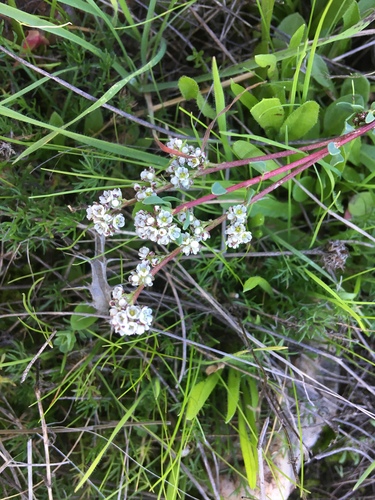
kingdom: Plantae
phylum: Tracheophyta
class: Magnoliopsida
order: Caryophyllales
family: Caryophyllaceae
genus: Corrigiola
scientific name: Corrigiola litoralis
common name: Strapwort
